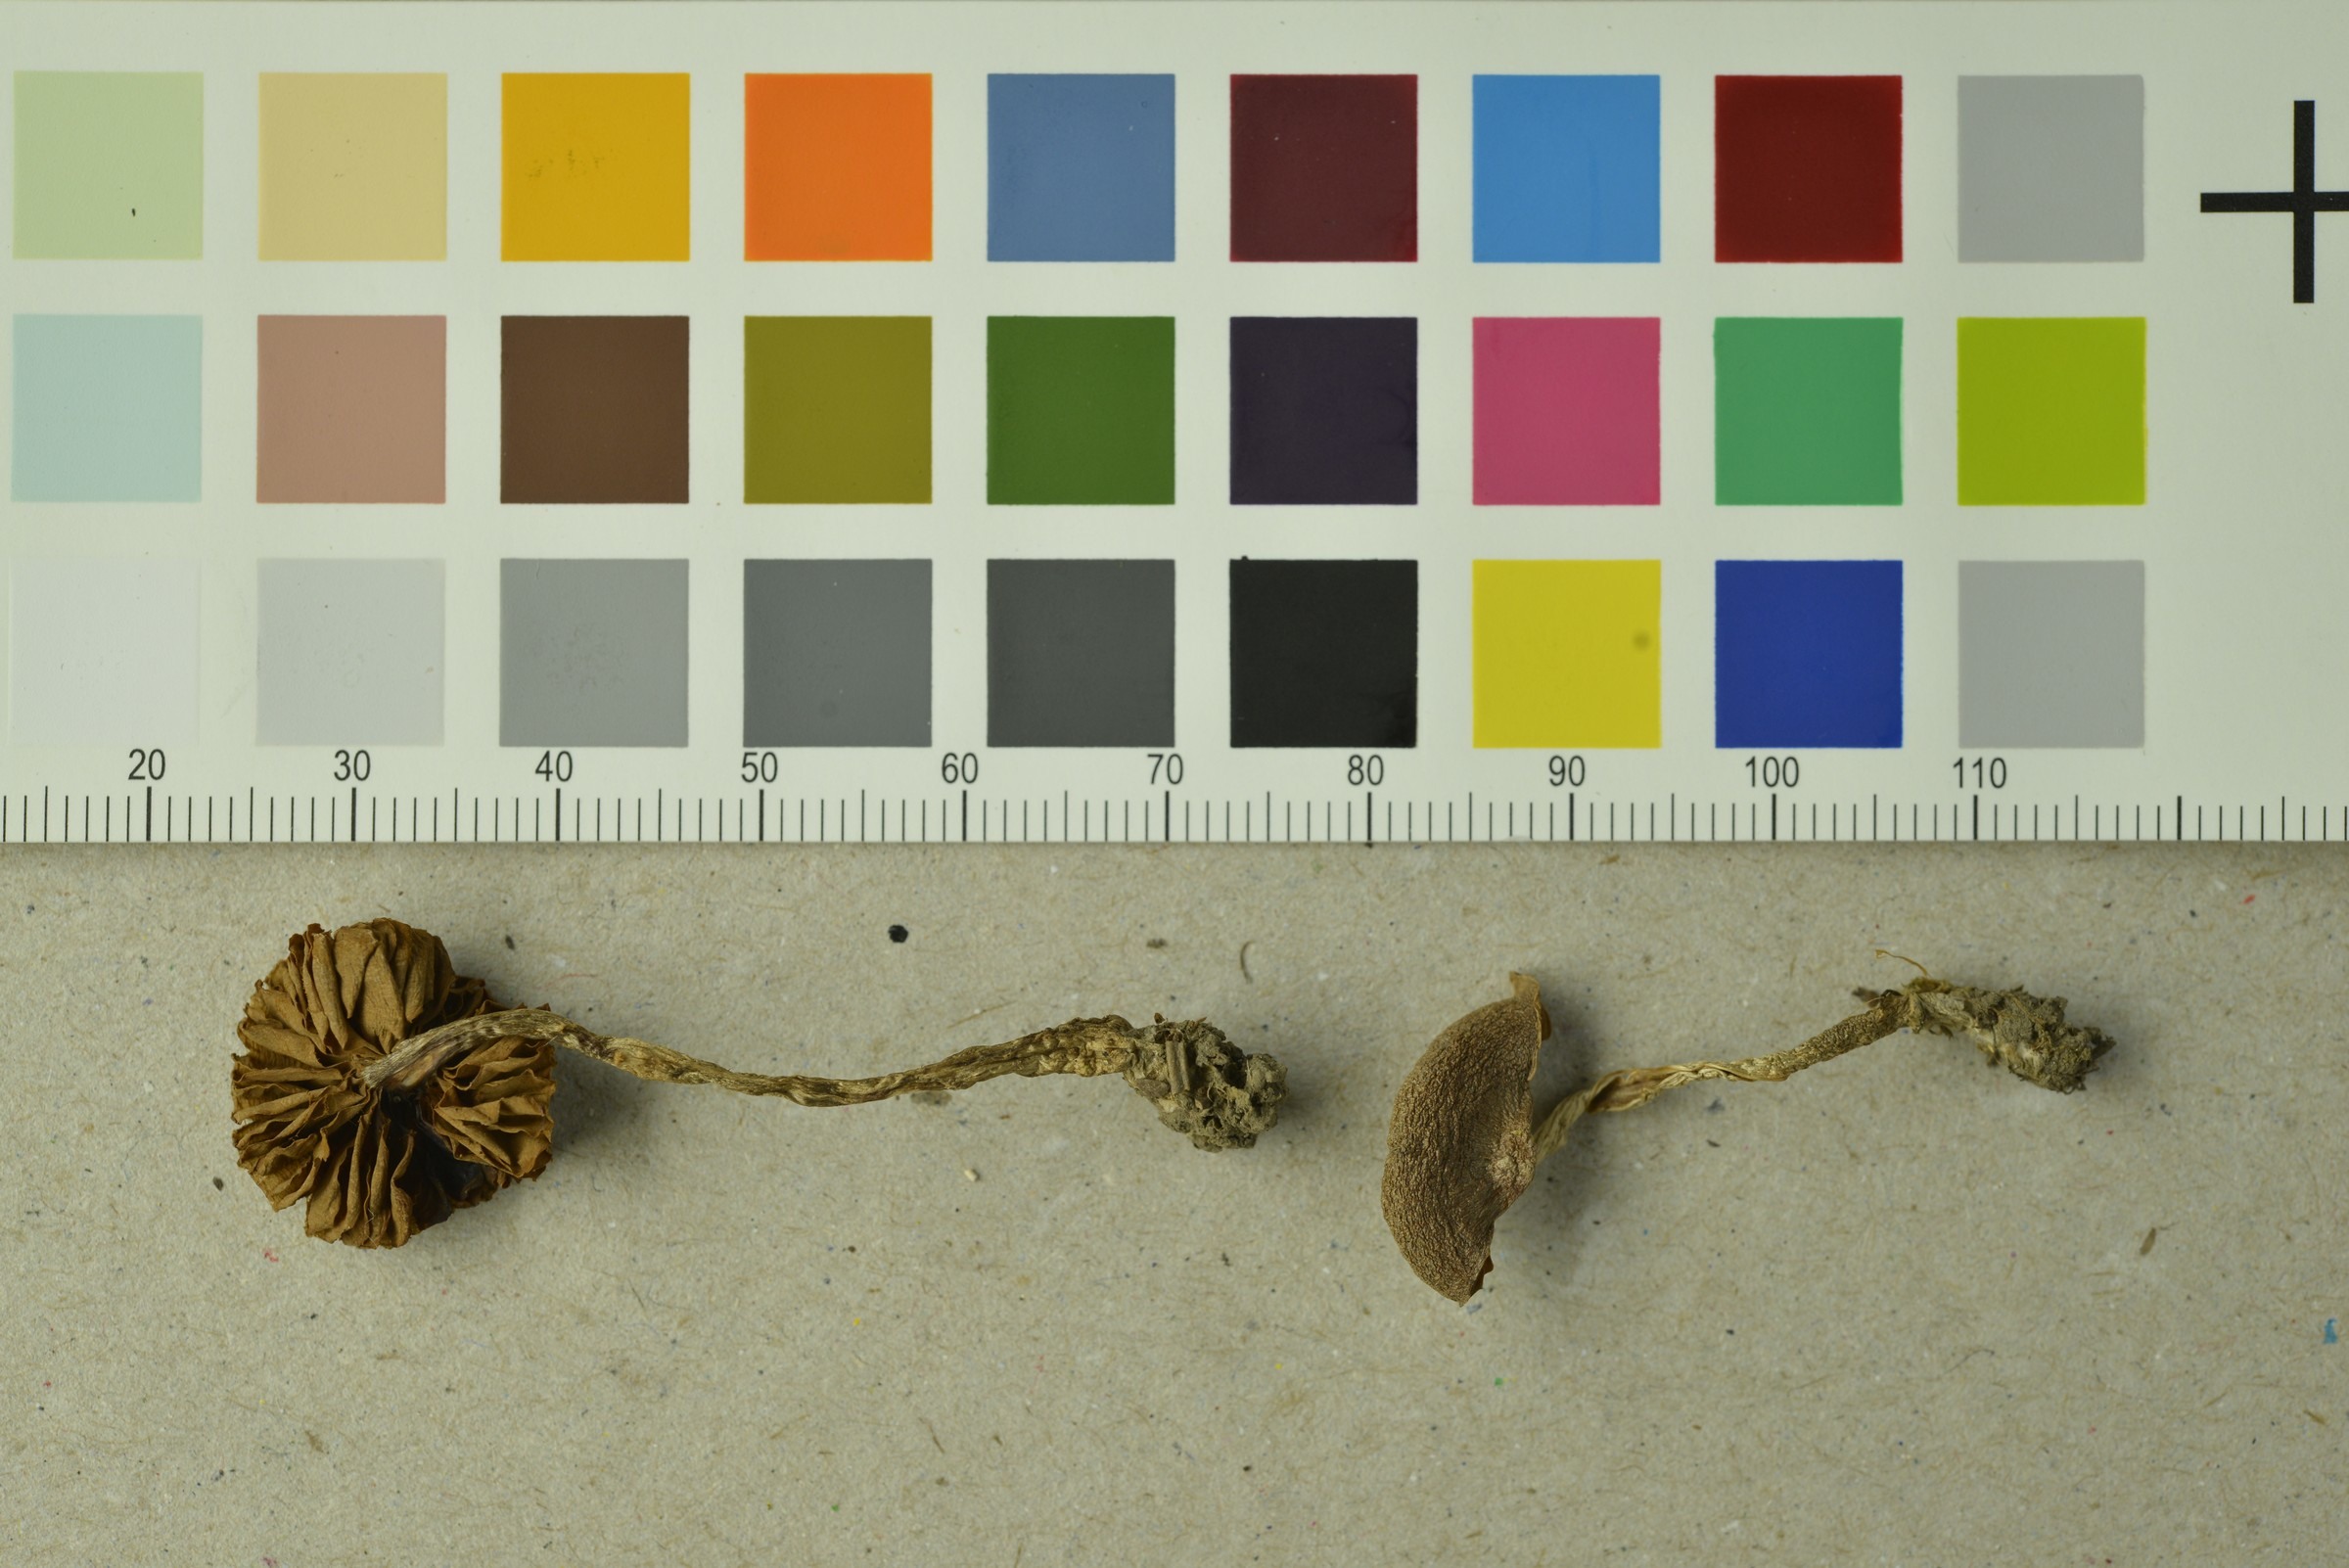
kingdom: Fungi
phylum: Basidiomycota
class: Agaricomycetes
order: Agaricales
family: Cortinariaceae
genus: Cortinarius
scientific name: Cortinarius fulvescens
